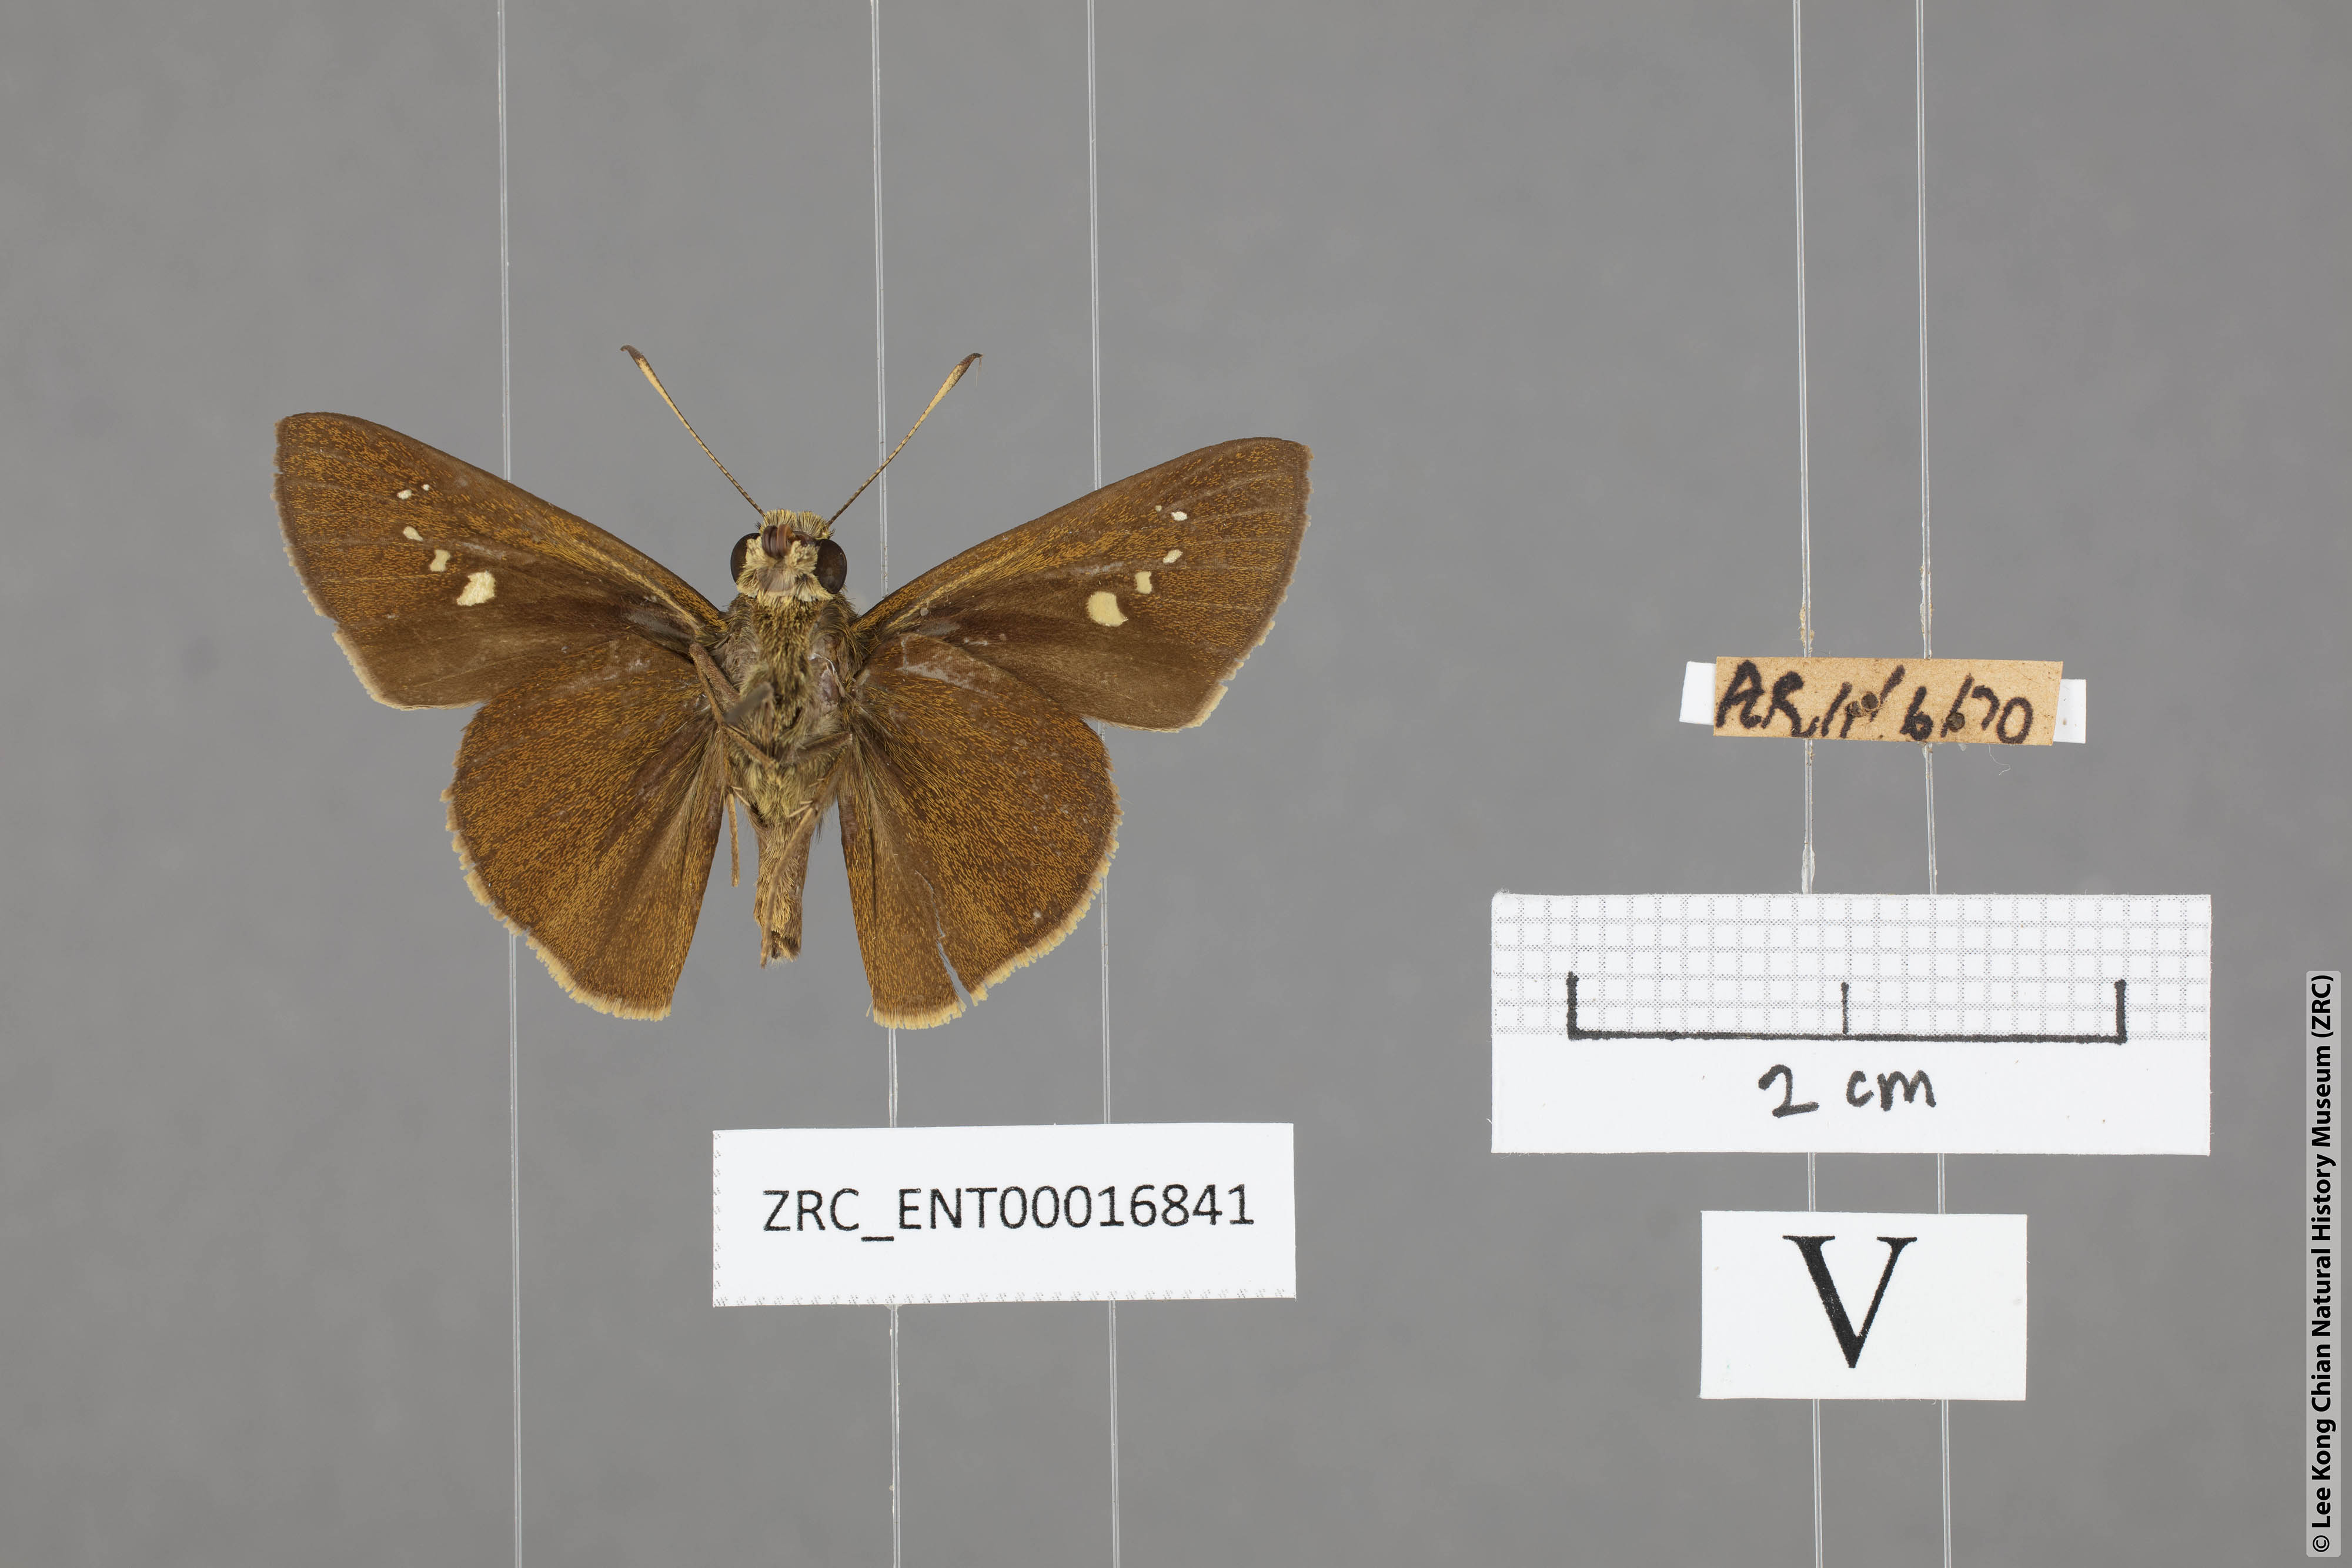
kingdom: Animalia
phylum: Arthropoda
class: Insecta
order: Lepidoptera
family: Hesperiidae
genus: Caltoris
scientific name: Caltoris malaya
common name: Malayan swift
